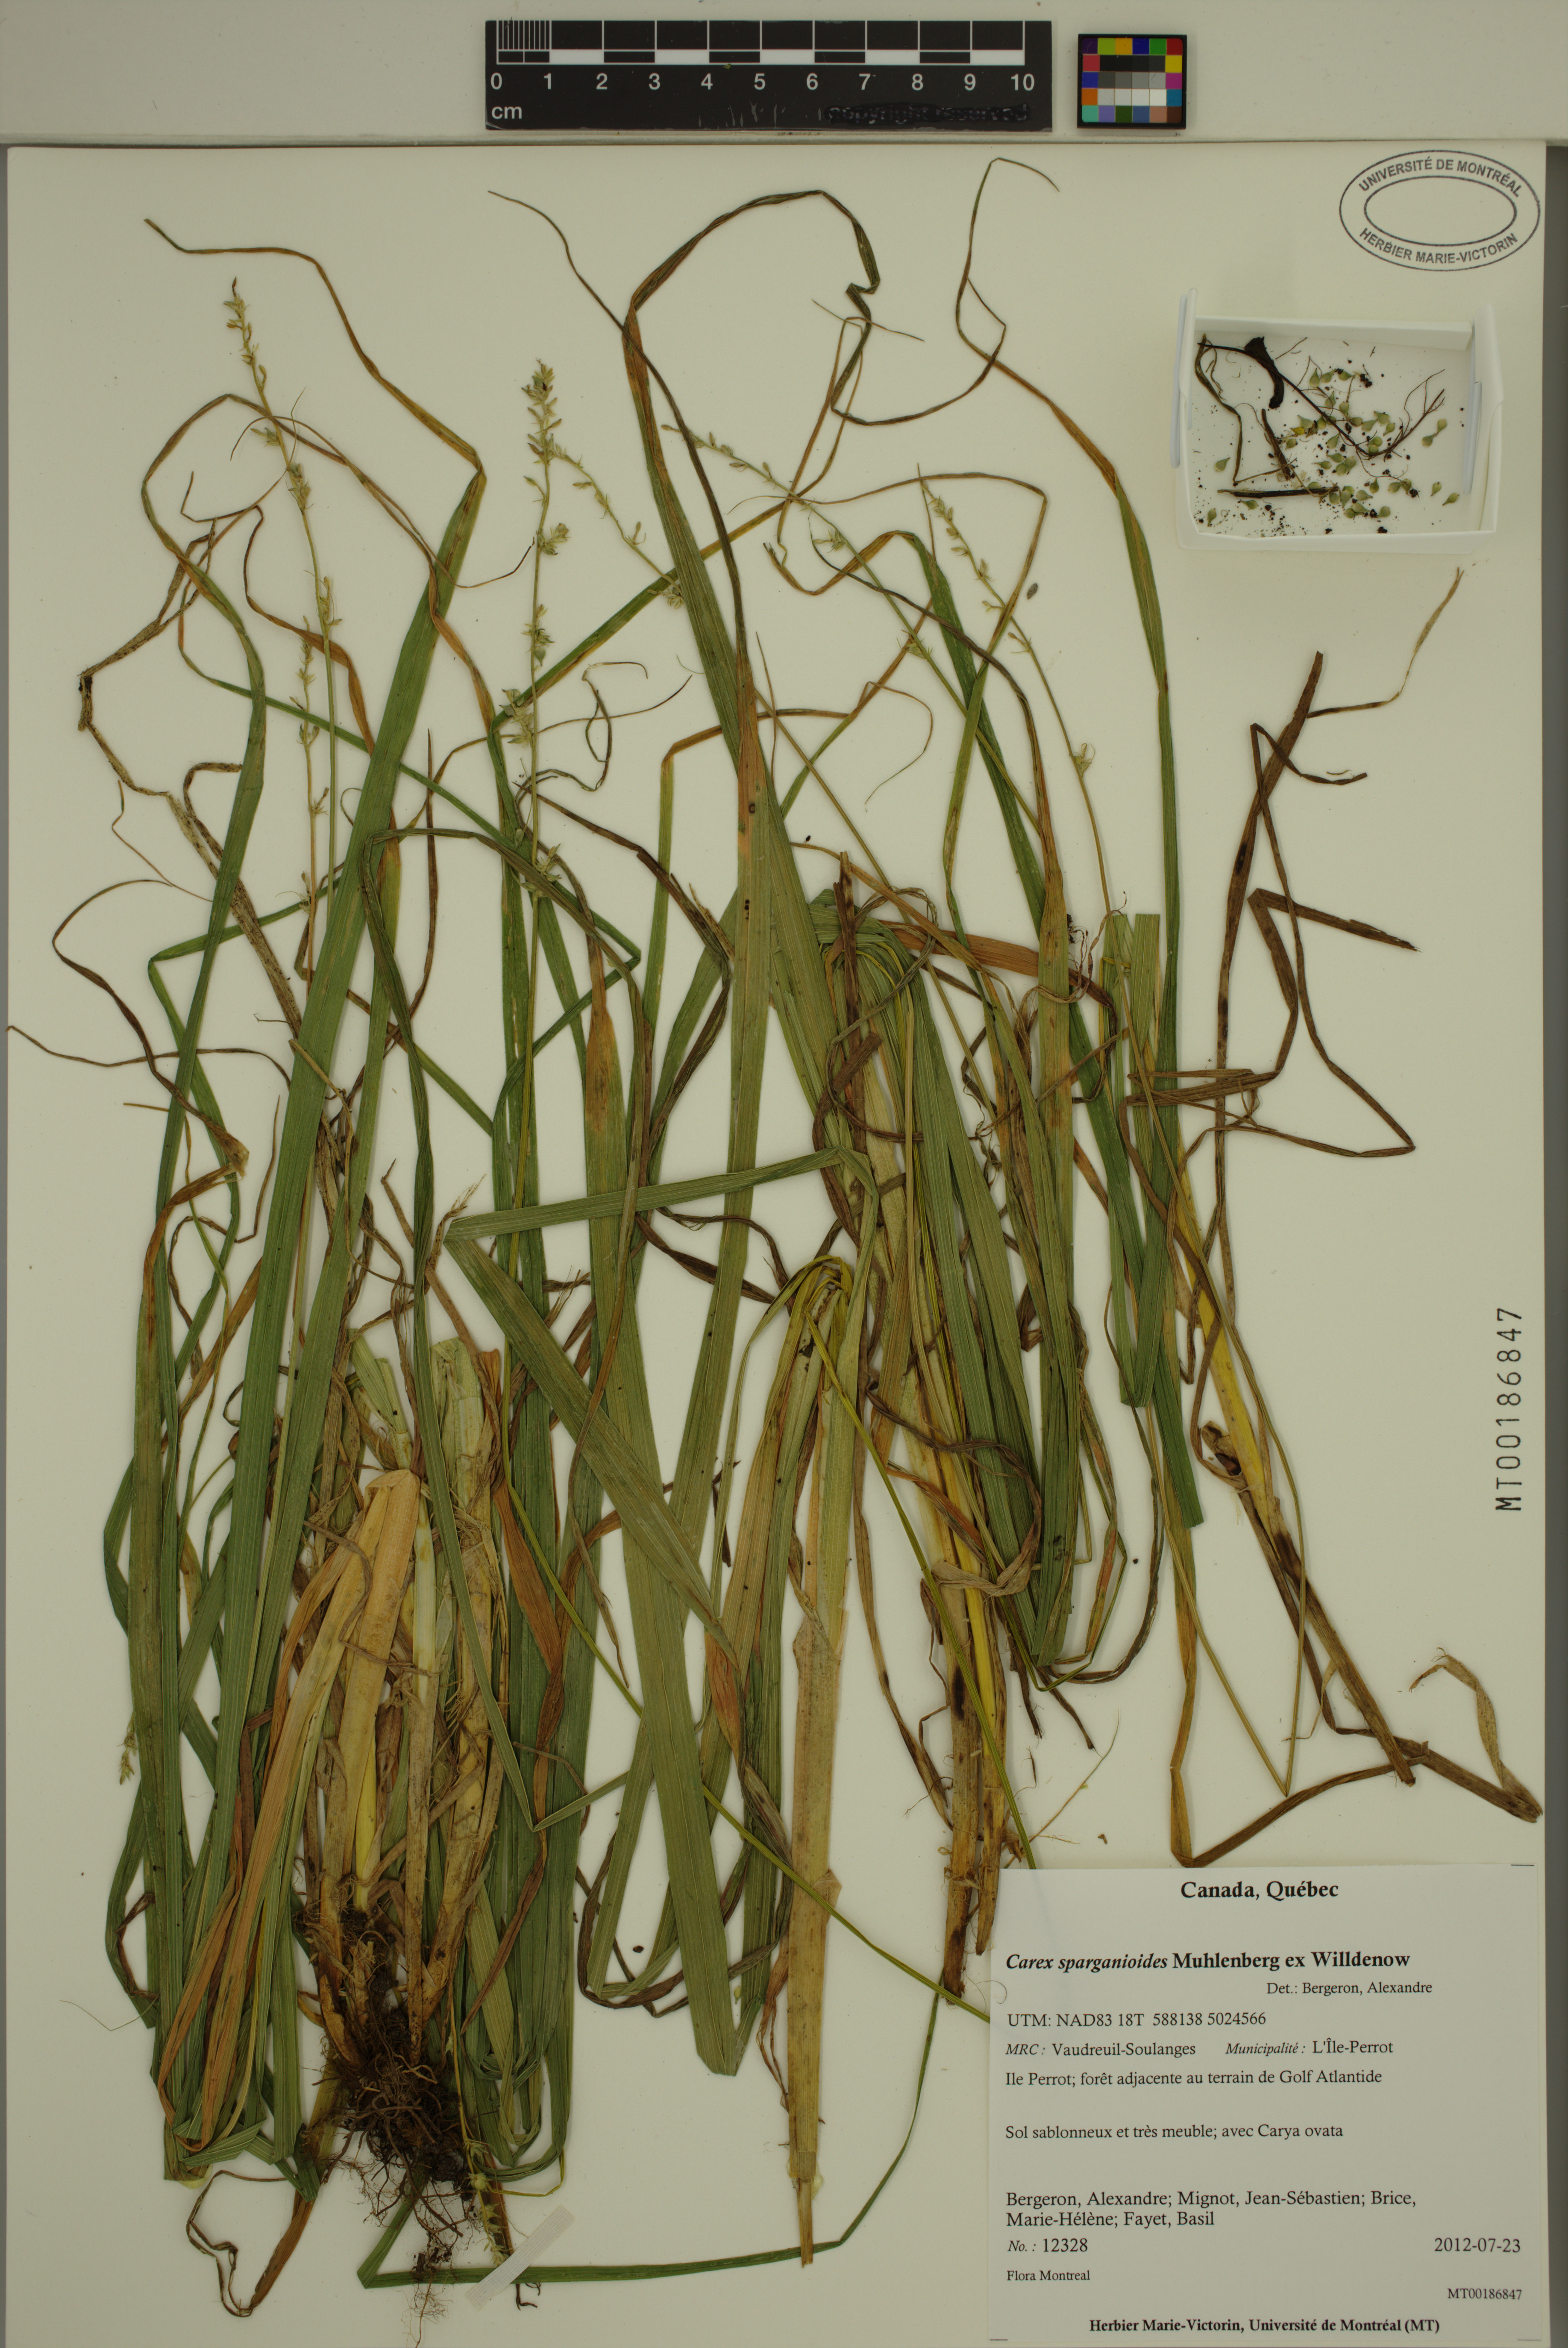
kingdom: Plantae
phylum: Tracheophyta
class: Liliopsida
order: Poales
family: Cyperaceae
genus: Carex
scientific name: Carex sparganioides
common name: Burreed sedge
